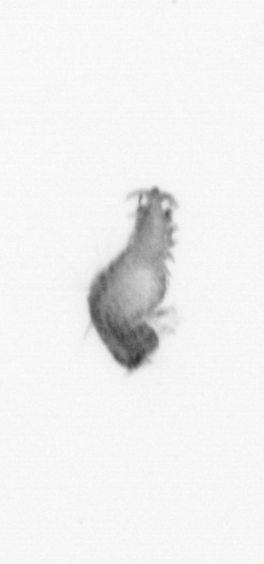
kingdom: Animalia
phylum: Annelida
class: Polychaeta
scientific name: Polychaeta
